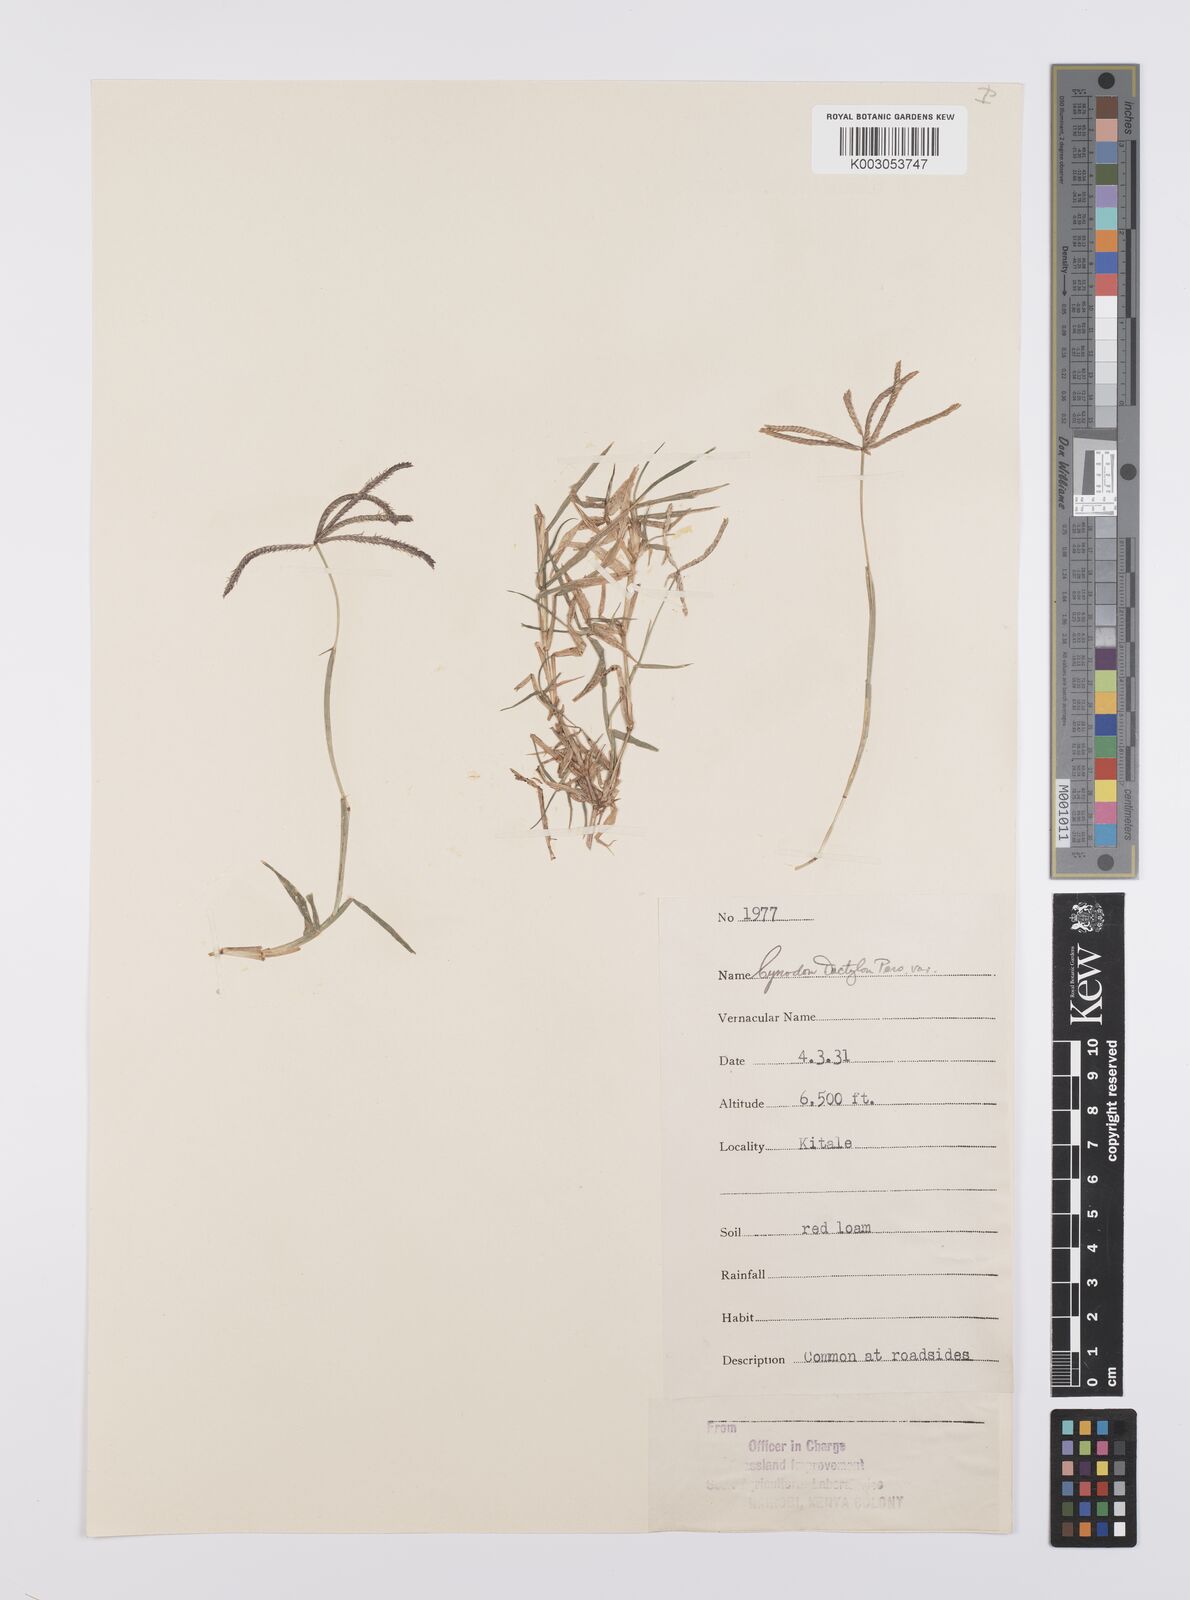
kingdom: Plantae
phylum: Tracheophyta
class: Liliopsida
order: Poales
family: Poaceae
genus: Cynodon
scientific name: Cynodon dactylon
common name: Bermuda grass
